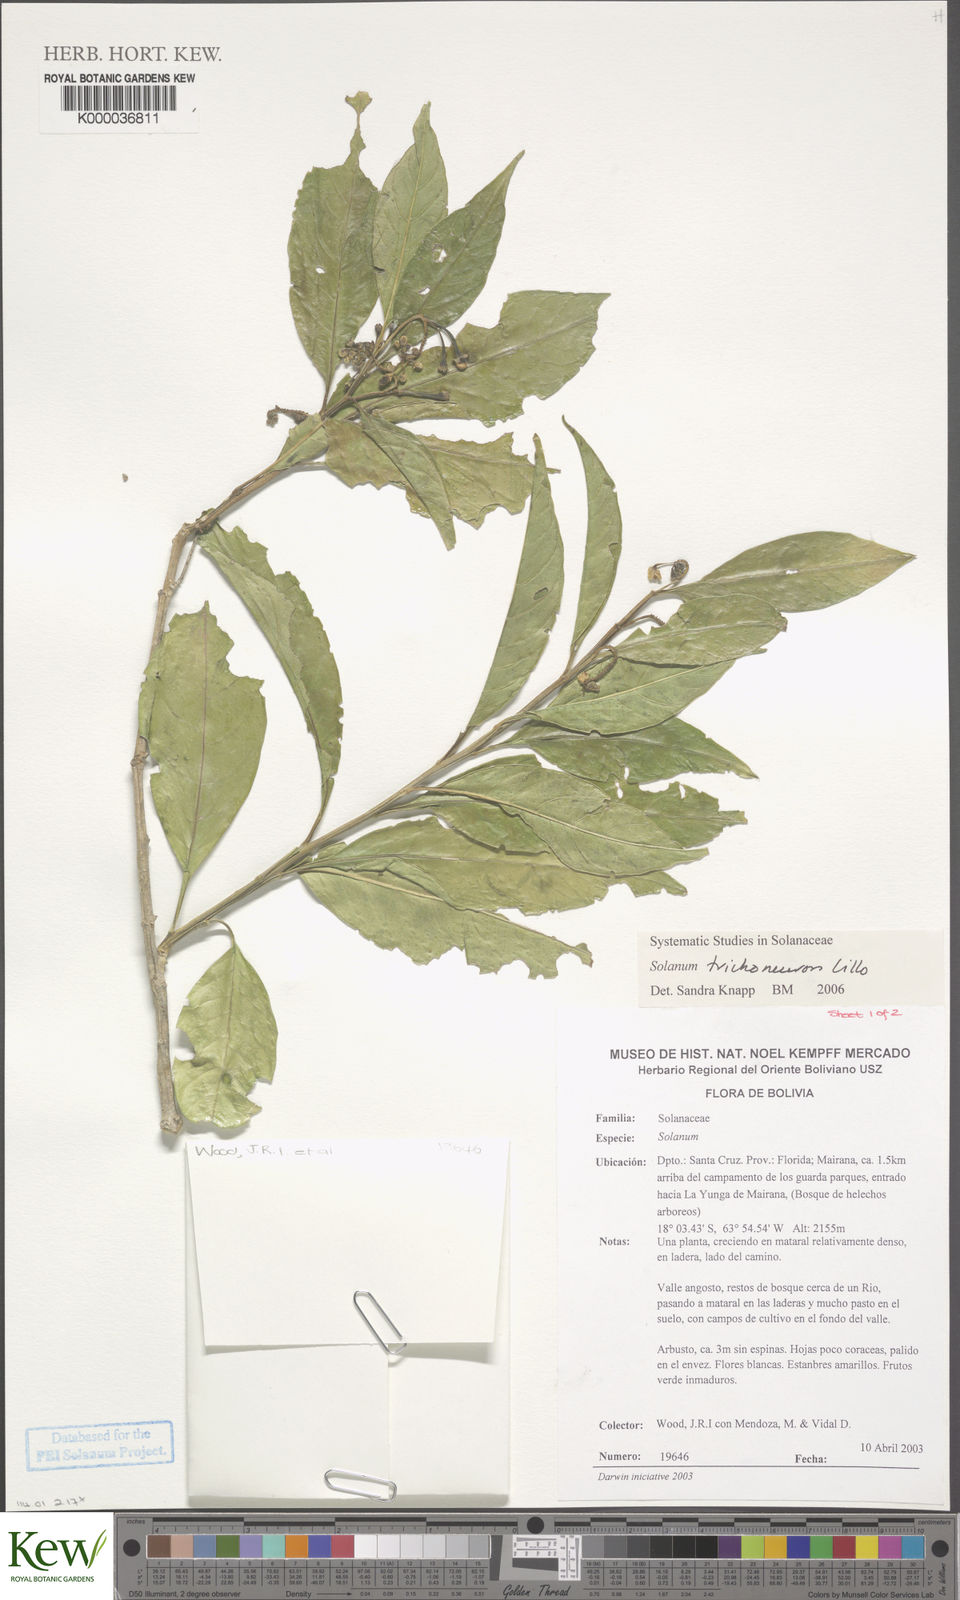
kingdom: Plantae
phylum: Tracheophyta
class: Magnoliopsida
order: Solanales
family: Solanaceae
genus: Solanum
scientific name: Solanum oblongum
